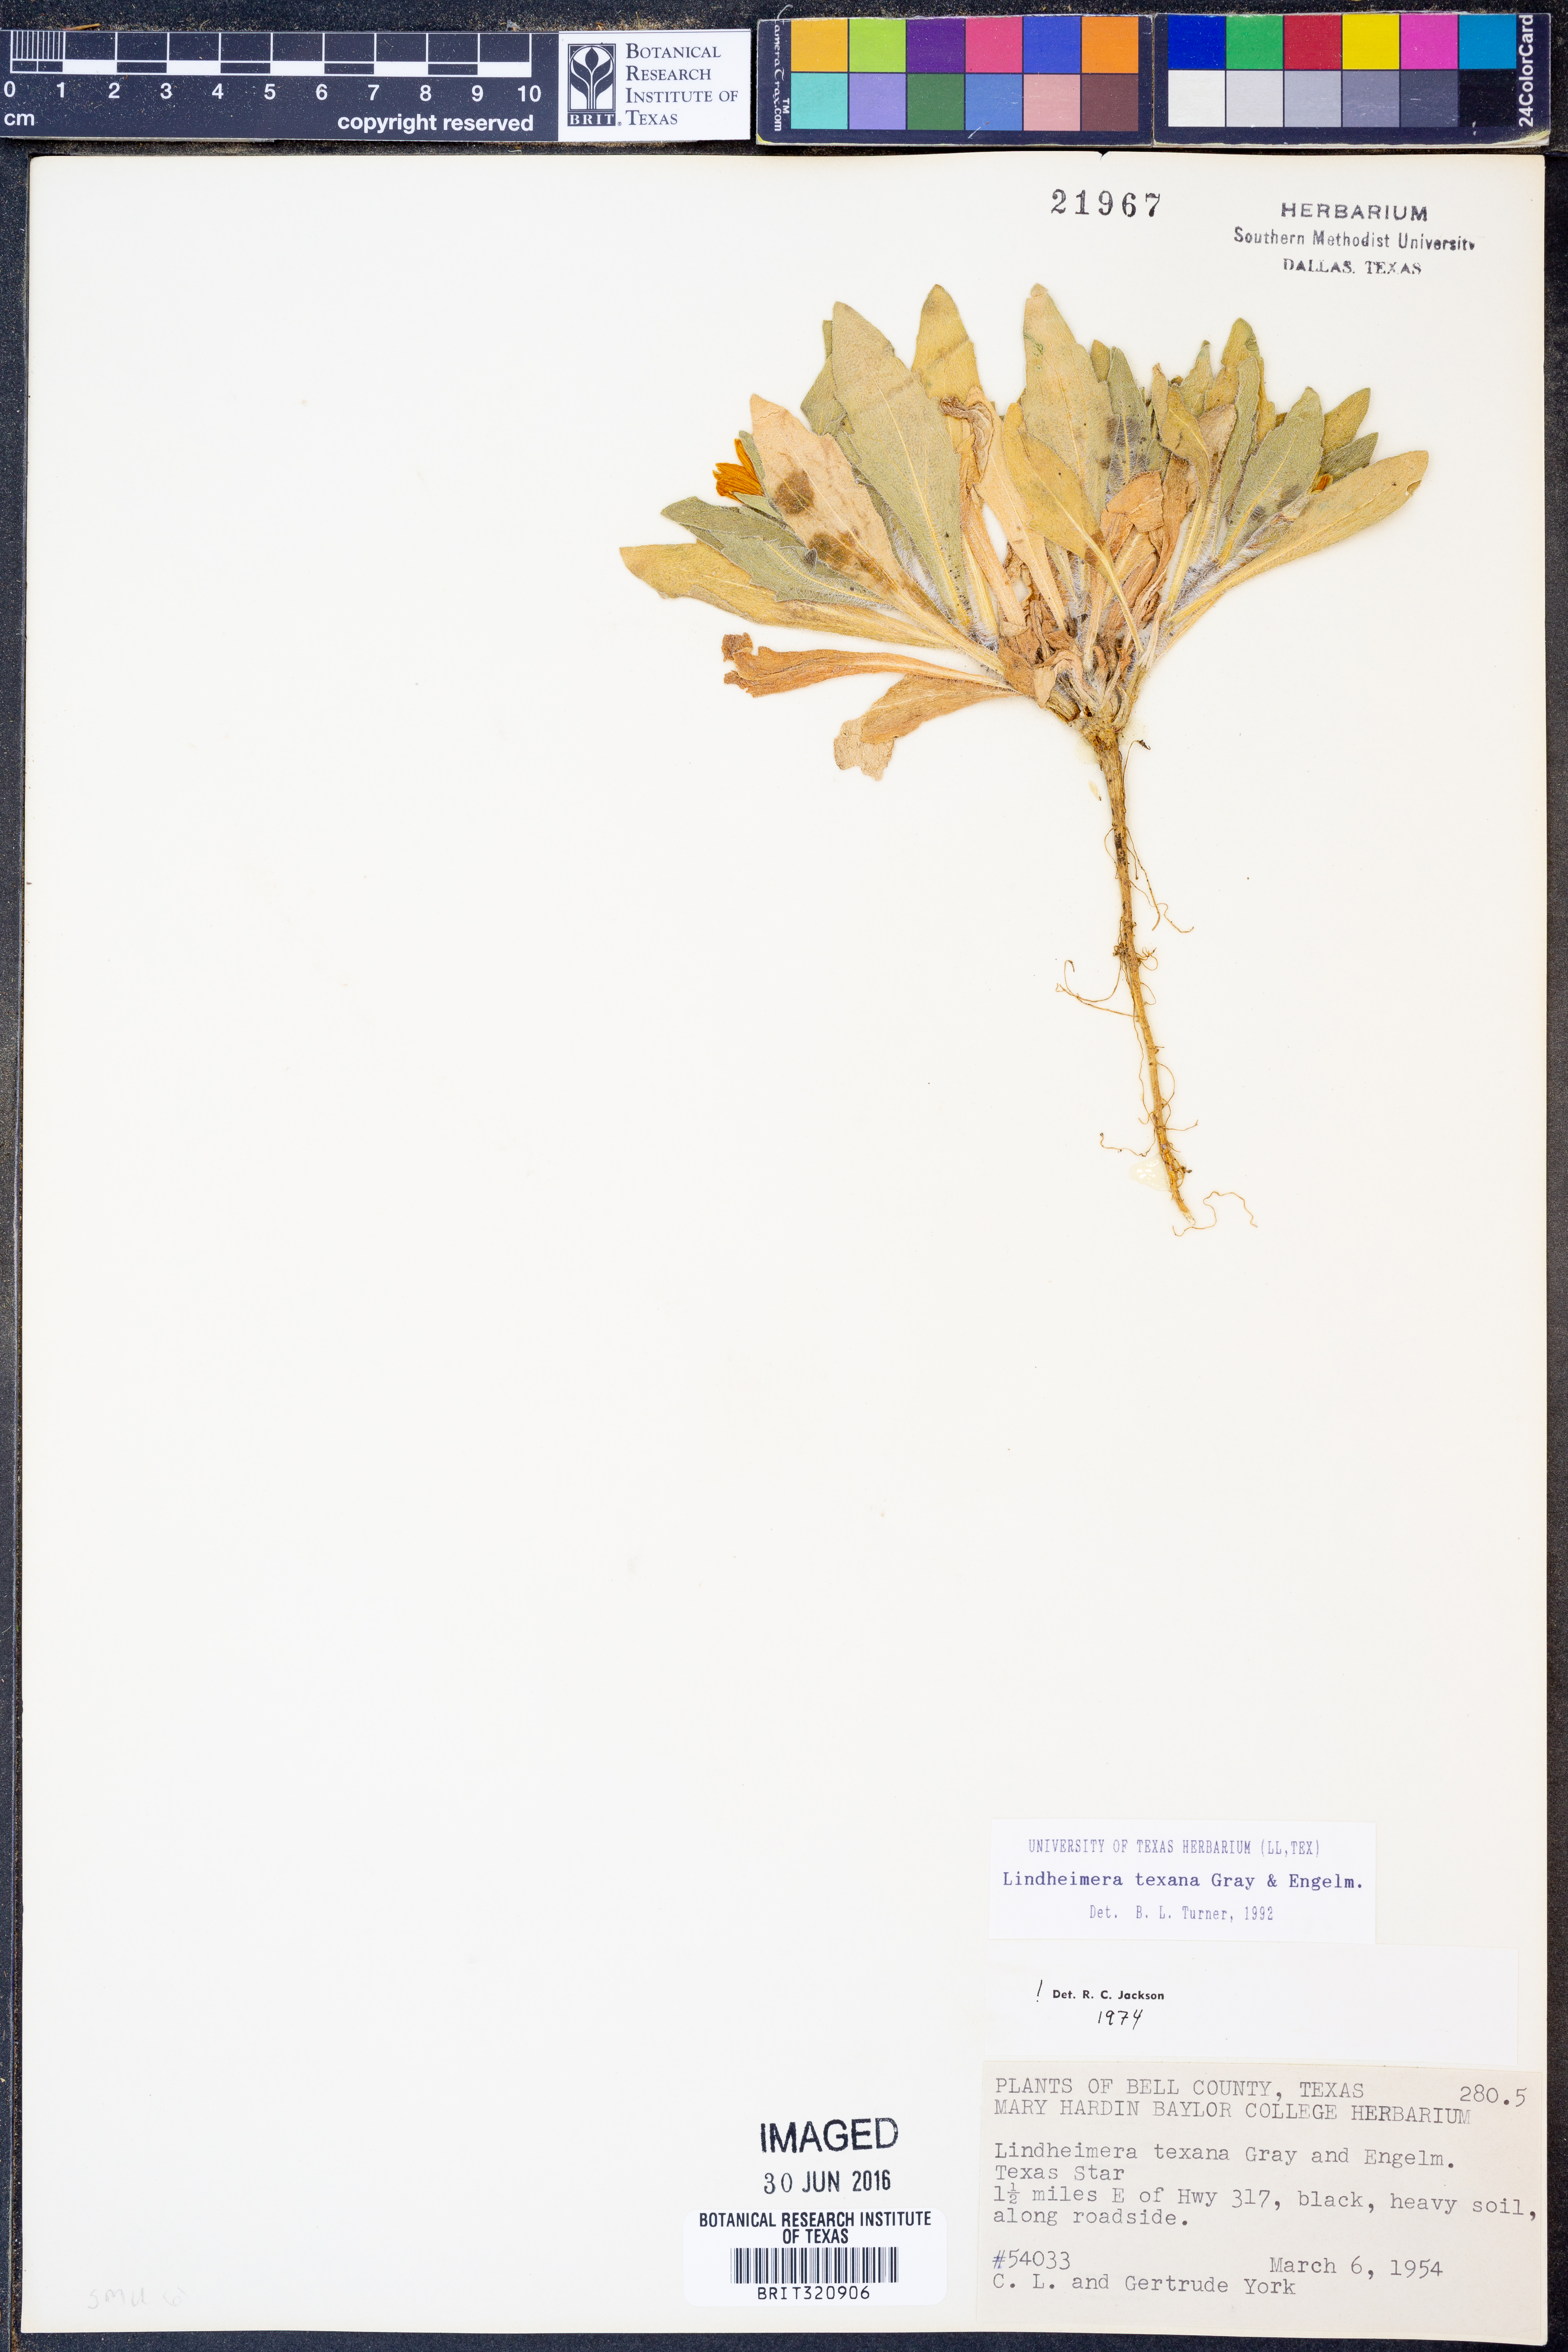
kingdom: Plantae
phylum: Tracheophyta
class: Magnoliopsida
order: Asterales
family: Asteraceae
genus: Lindheimera
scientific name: Lindheimera texana
